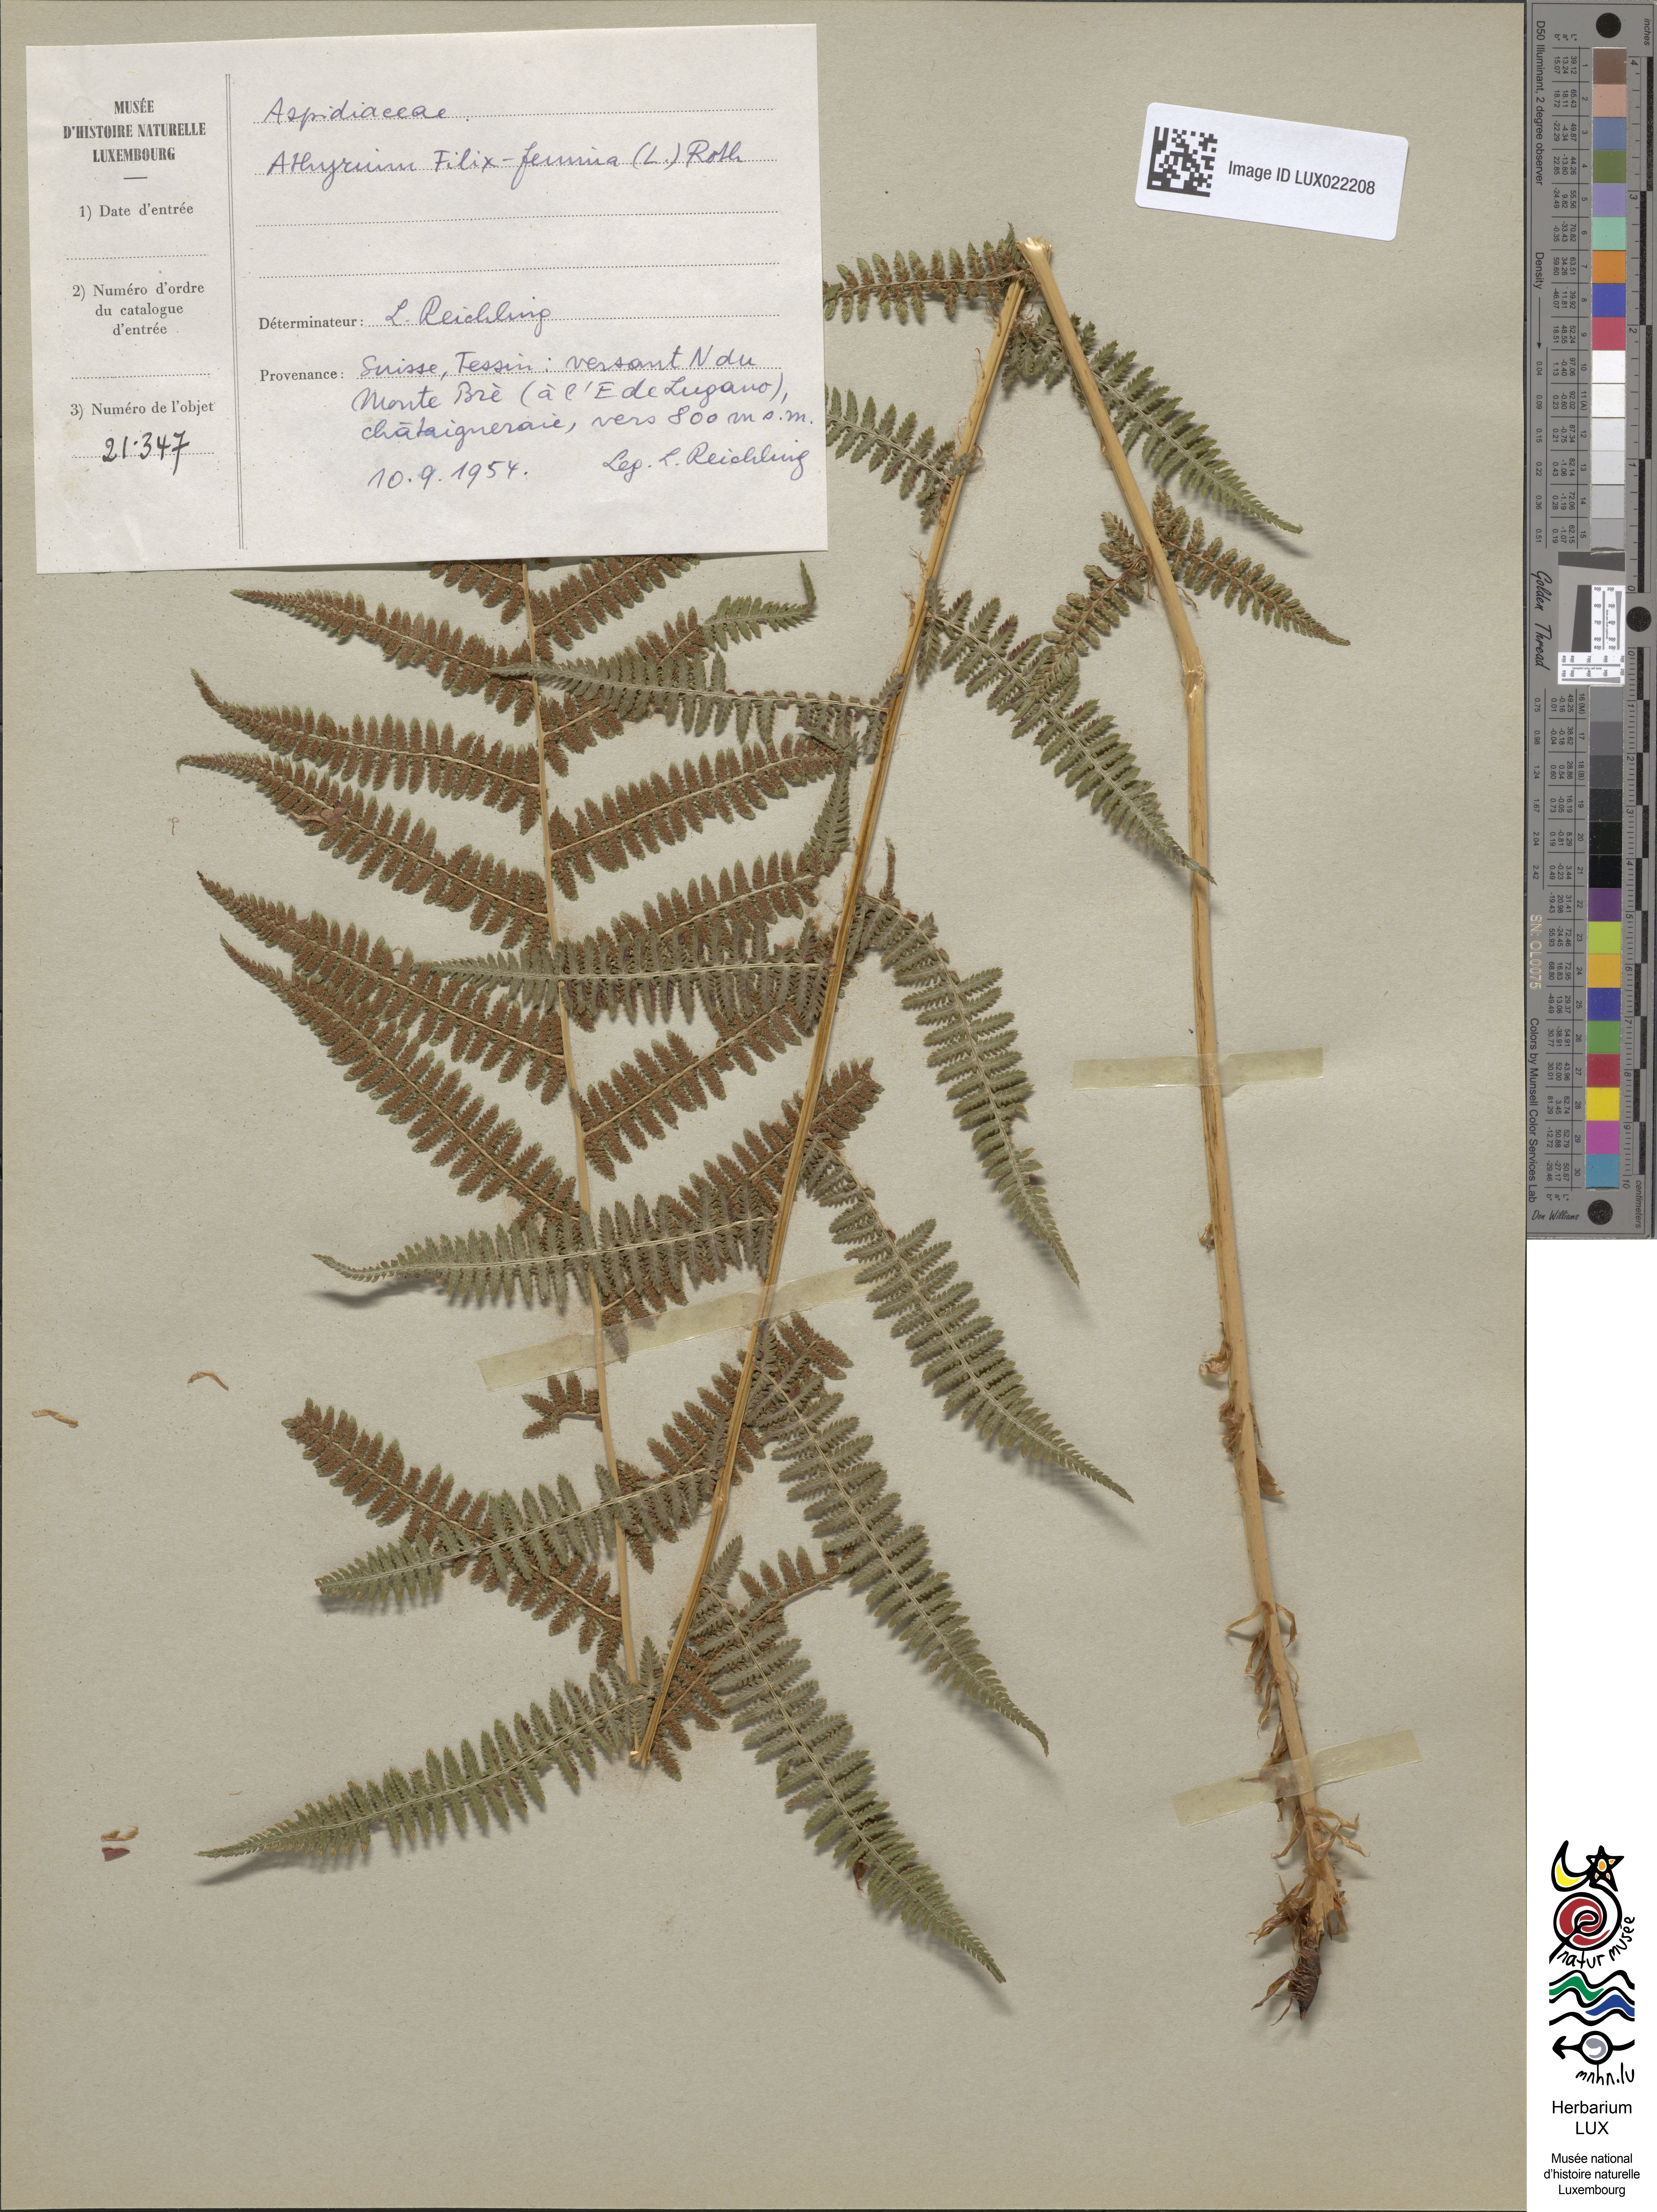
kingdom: Plantae
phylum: Tracheophyta
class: Polypodiopsida
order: Polypodiales
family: Athyriaceae
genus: Athyrium
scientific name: Athyrium filix-femina
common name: Lady fern
